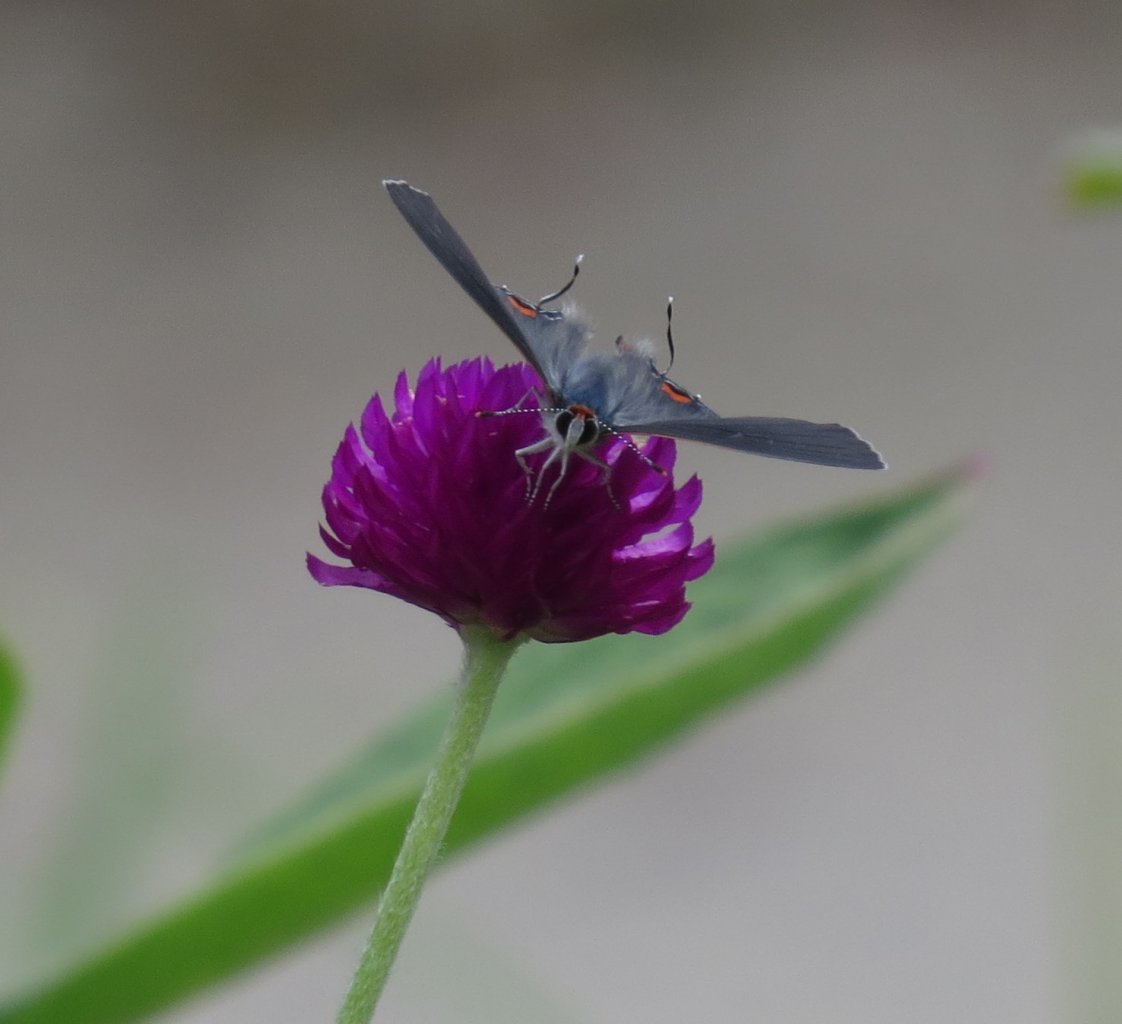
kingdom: Animalia
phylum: Arthropoda
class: Insecta
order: Lepidoptera
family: Lycaenidae
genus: Strymon
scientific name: Strymon melinus
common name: Gray Hairstreak
